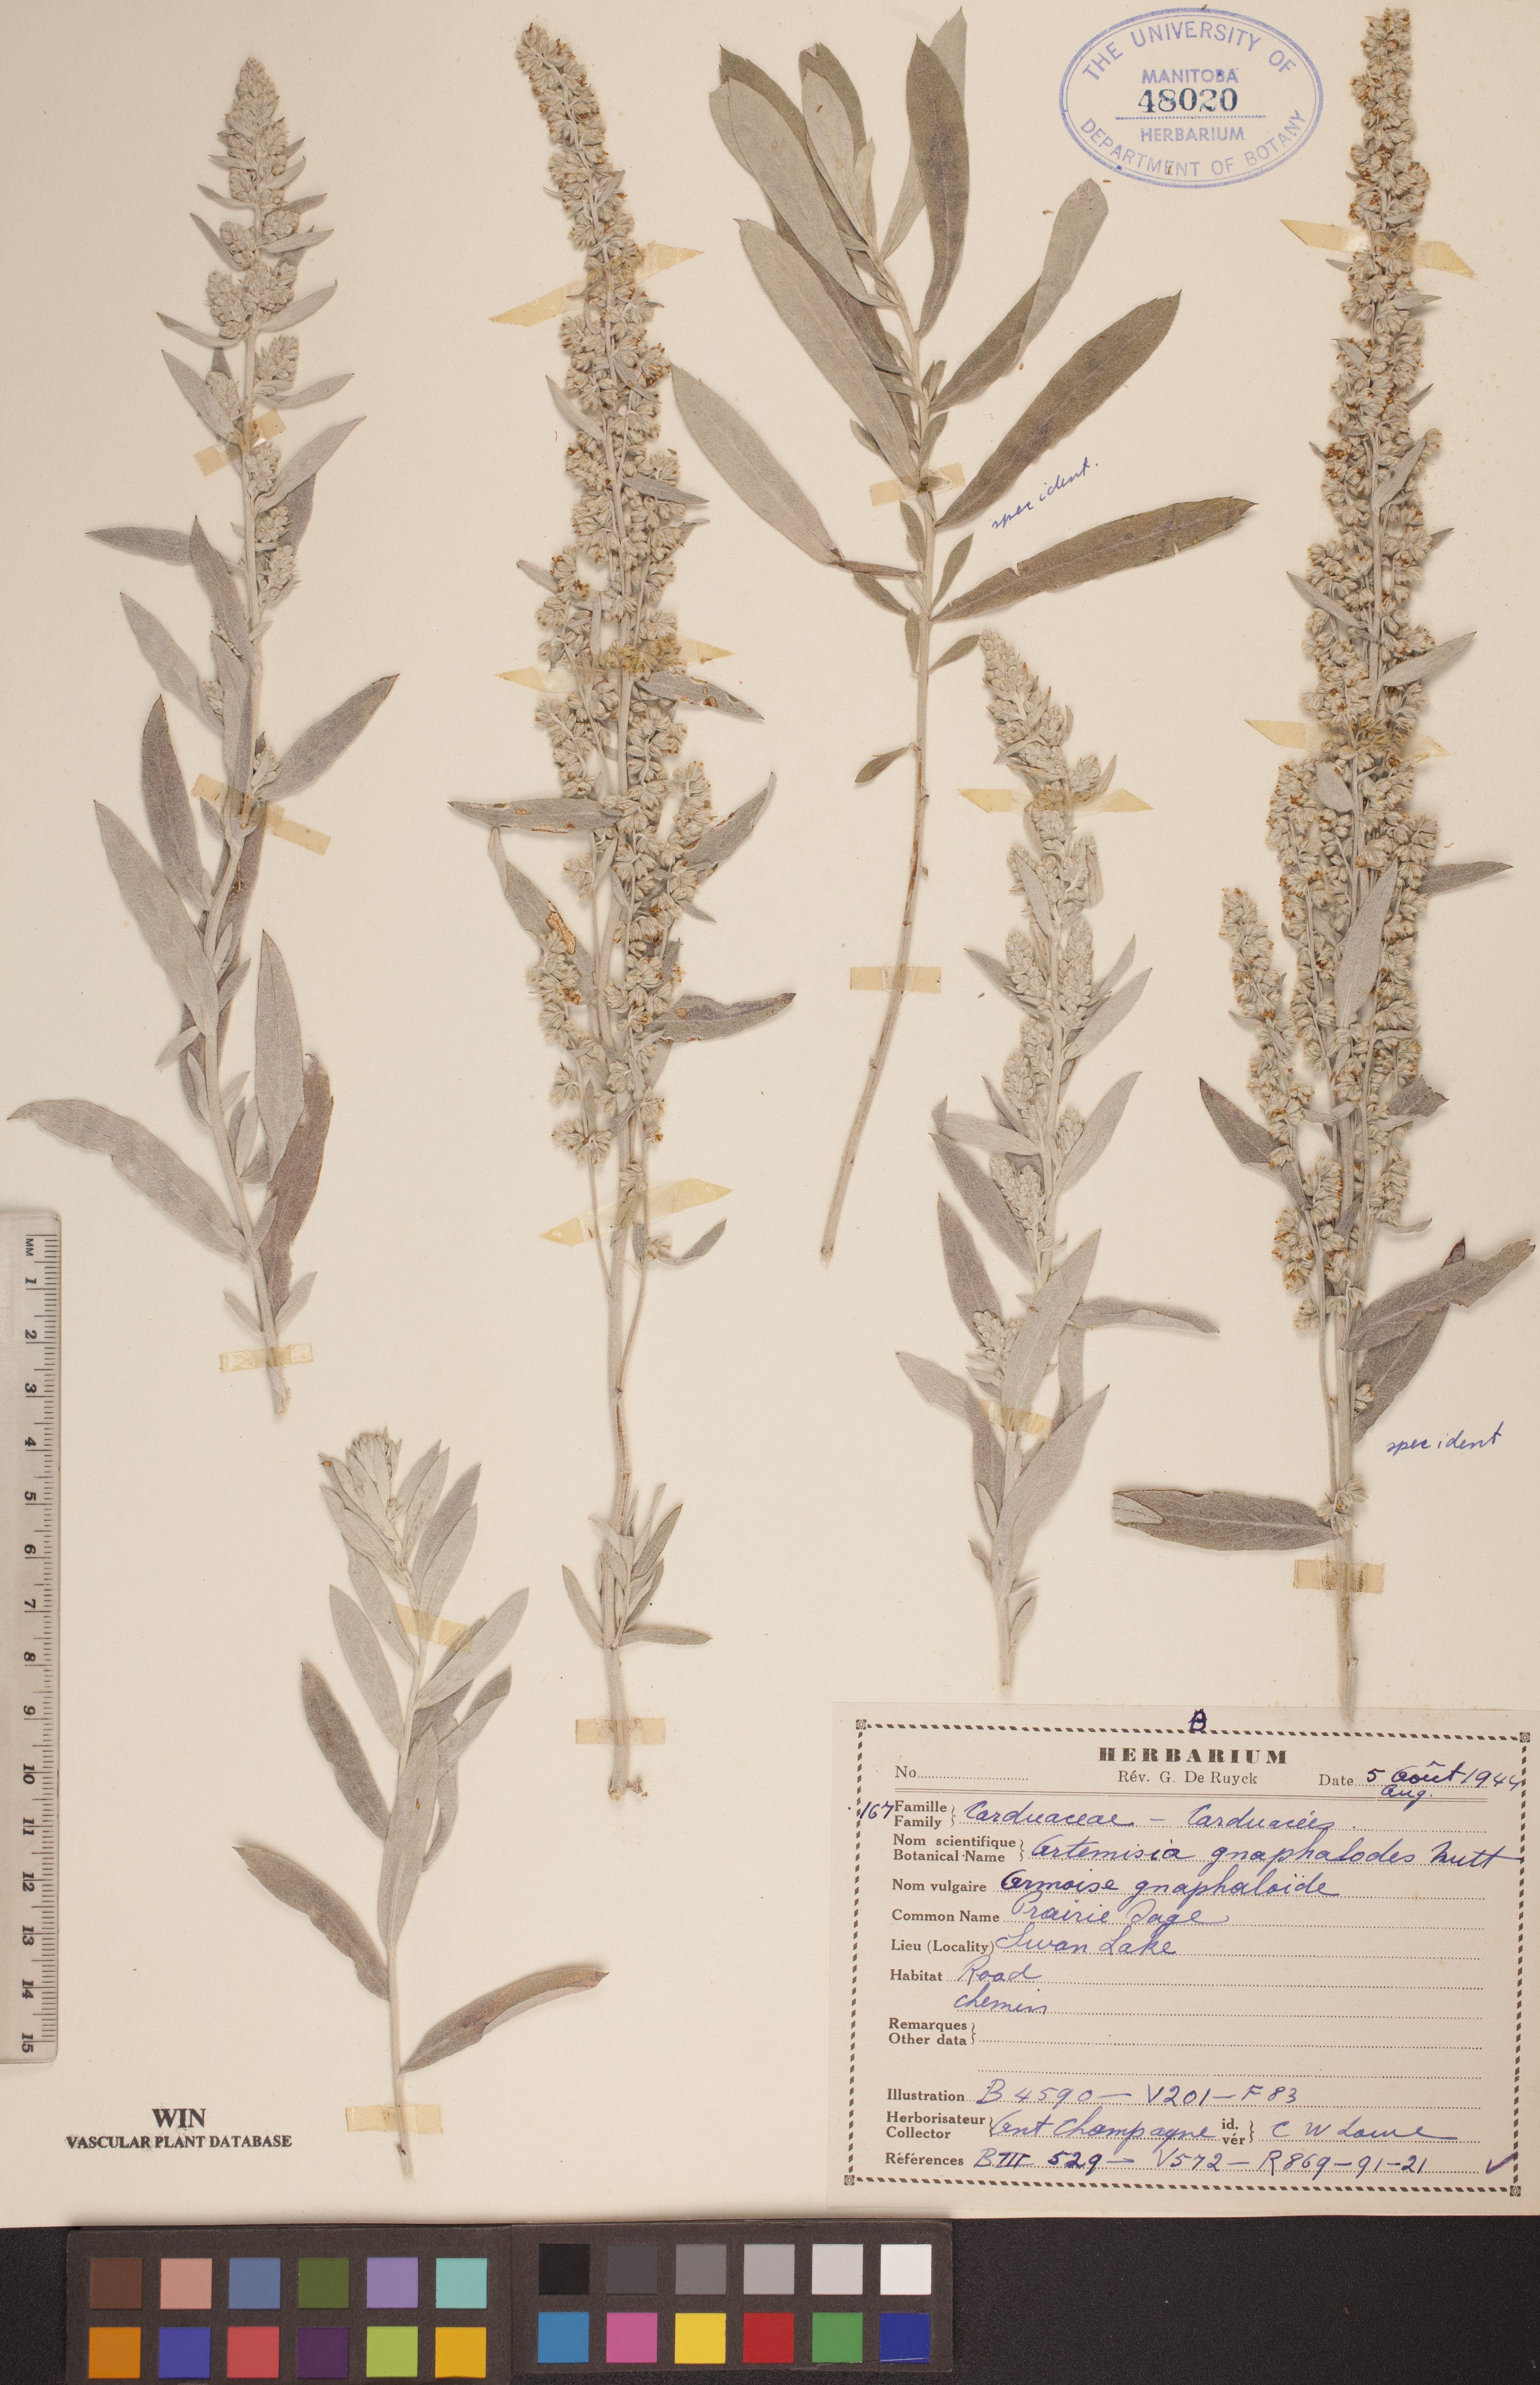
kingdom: Plantae
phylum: Tracheophyta
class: Magnoliopsida
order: Asterales
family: Asteraceae
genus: Artemisia
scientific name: Artemisia ludoviciana
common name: Western mugwort
